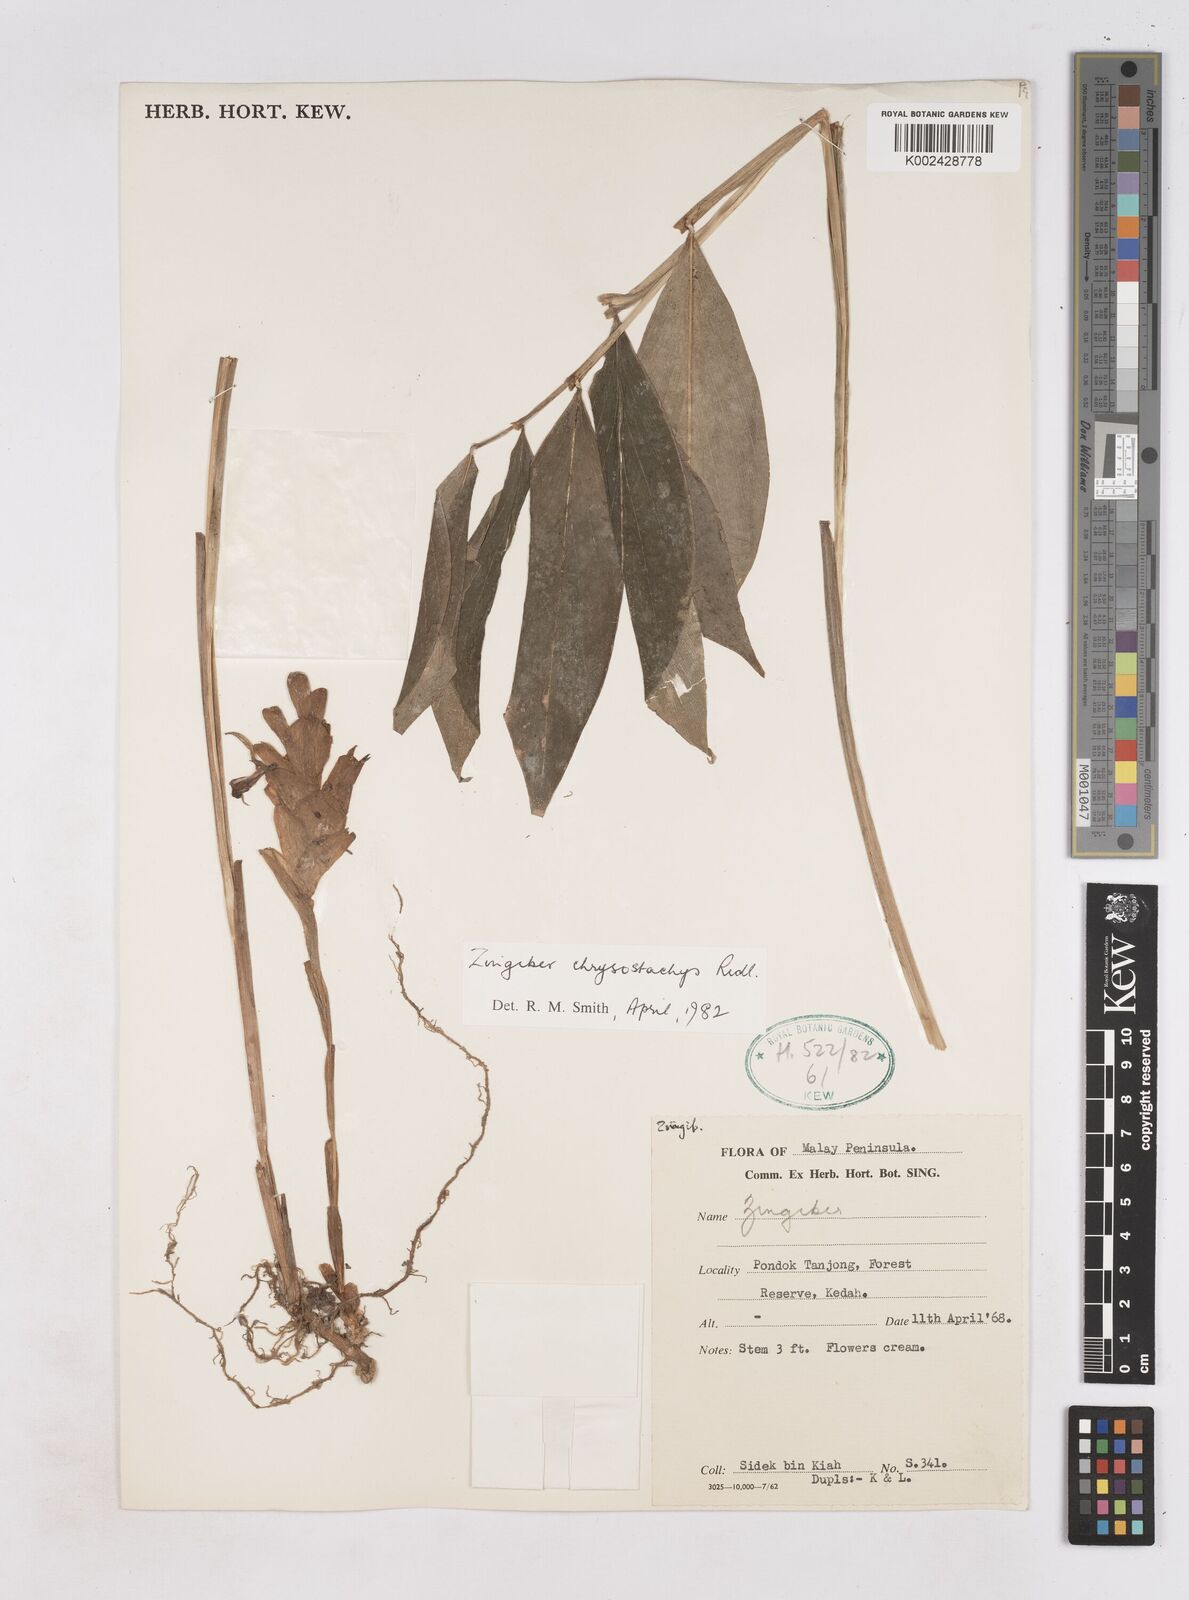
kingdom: Plantae
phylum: Tracheophyta
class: Liliopsida
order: Zingiberales
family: Zingiberaceae
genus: Zingiber
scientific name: Zingiber chrysostachys
